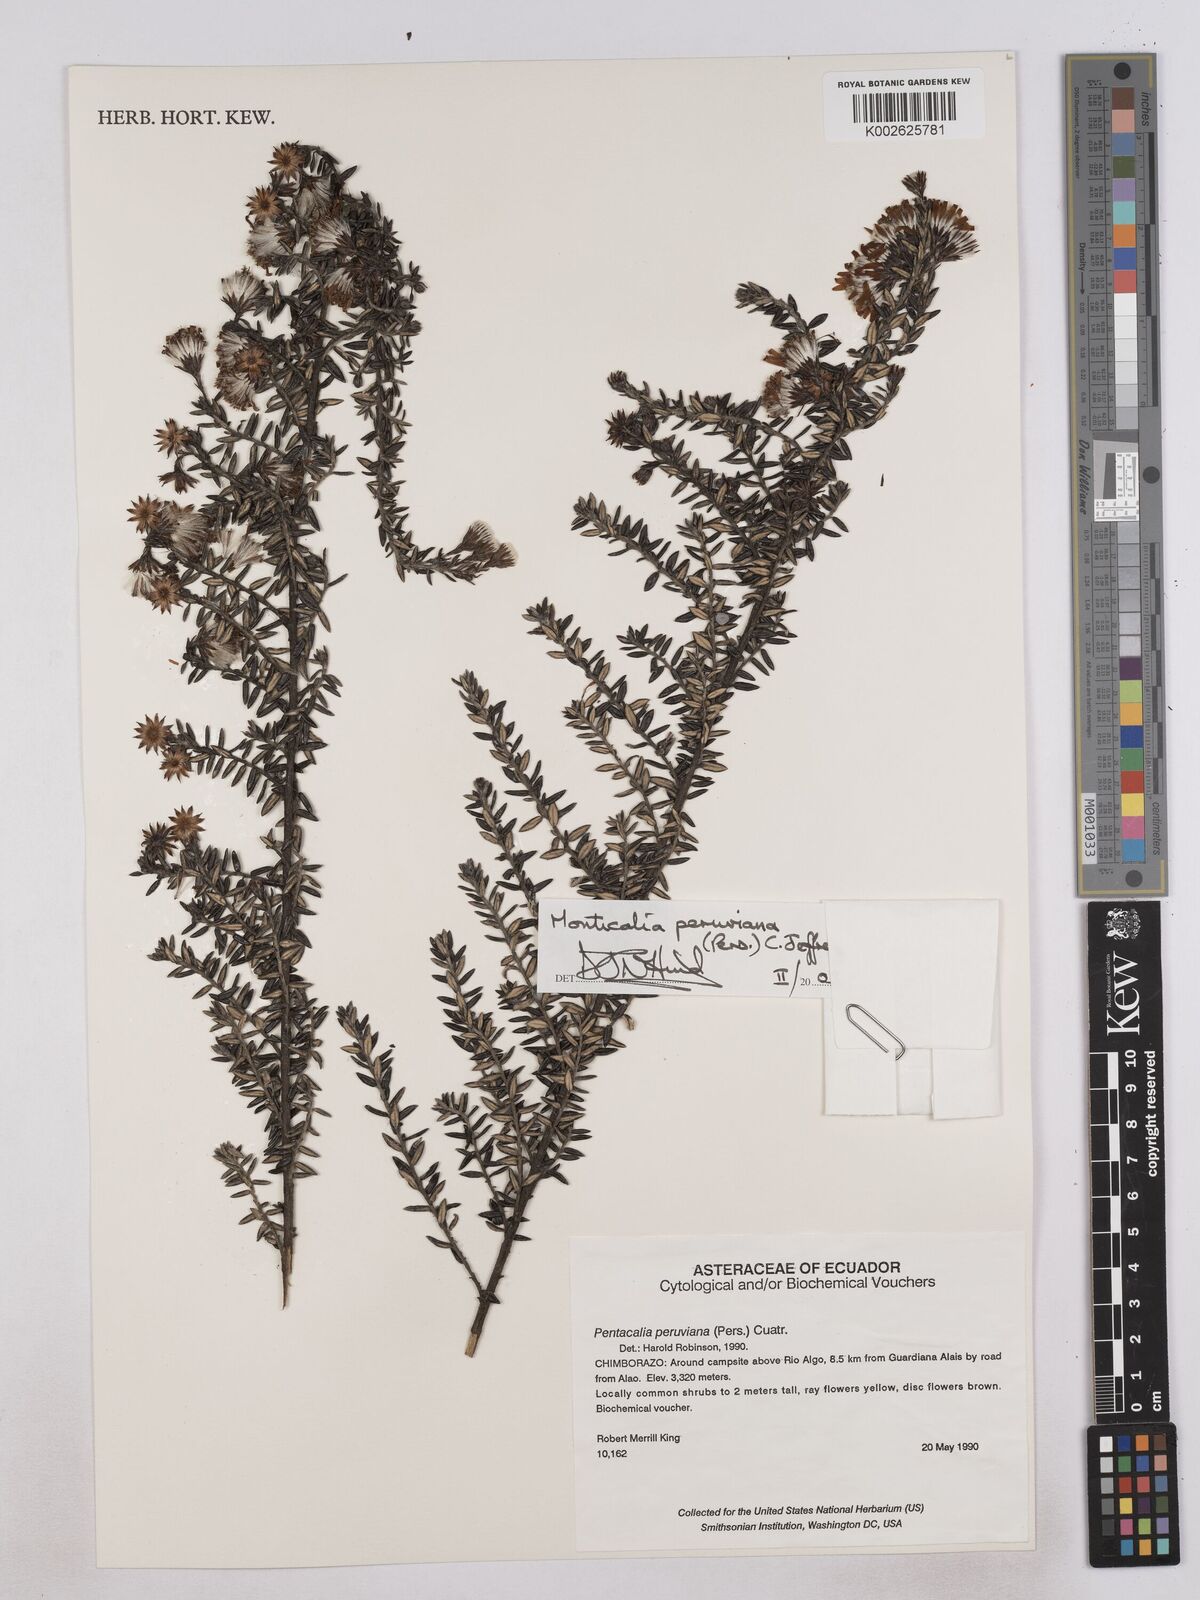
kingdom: Plantae
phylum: Tracheophyta
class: Magnoliopsida
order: Asterales
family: Asteraceae
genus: Monticalia
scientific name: Monticalia peruviana
